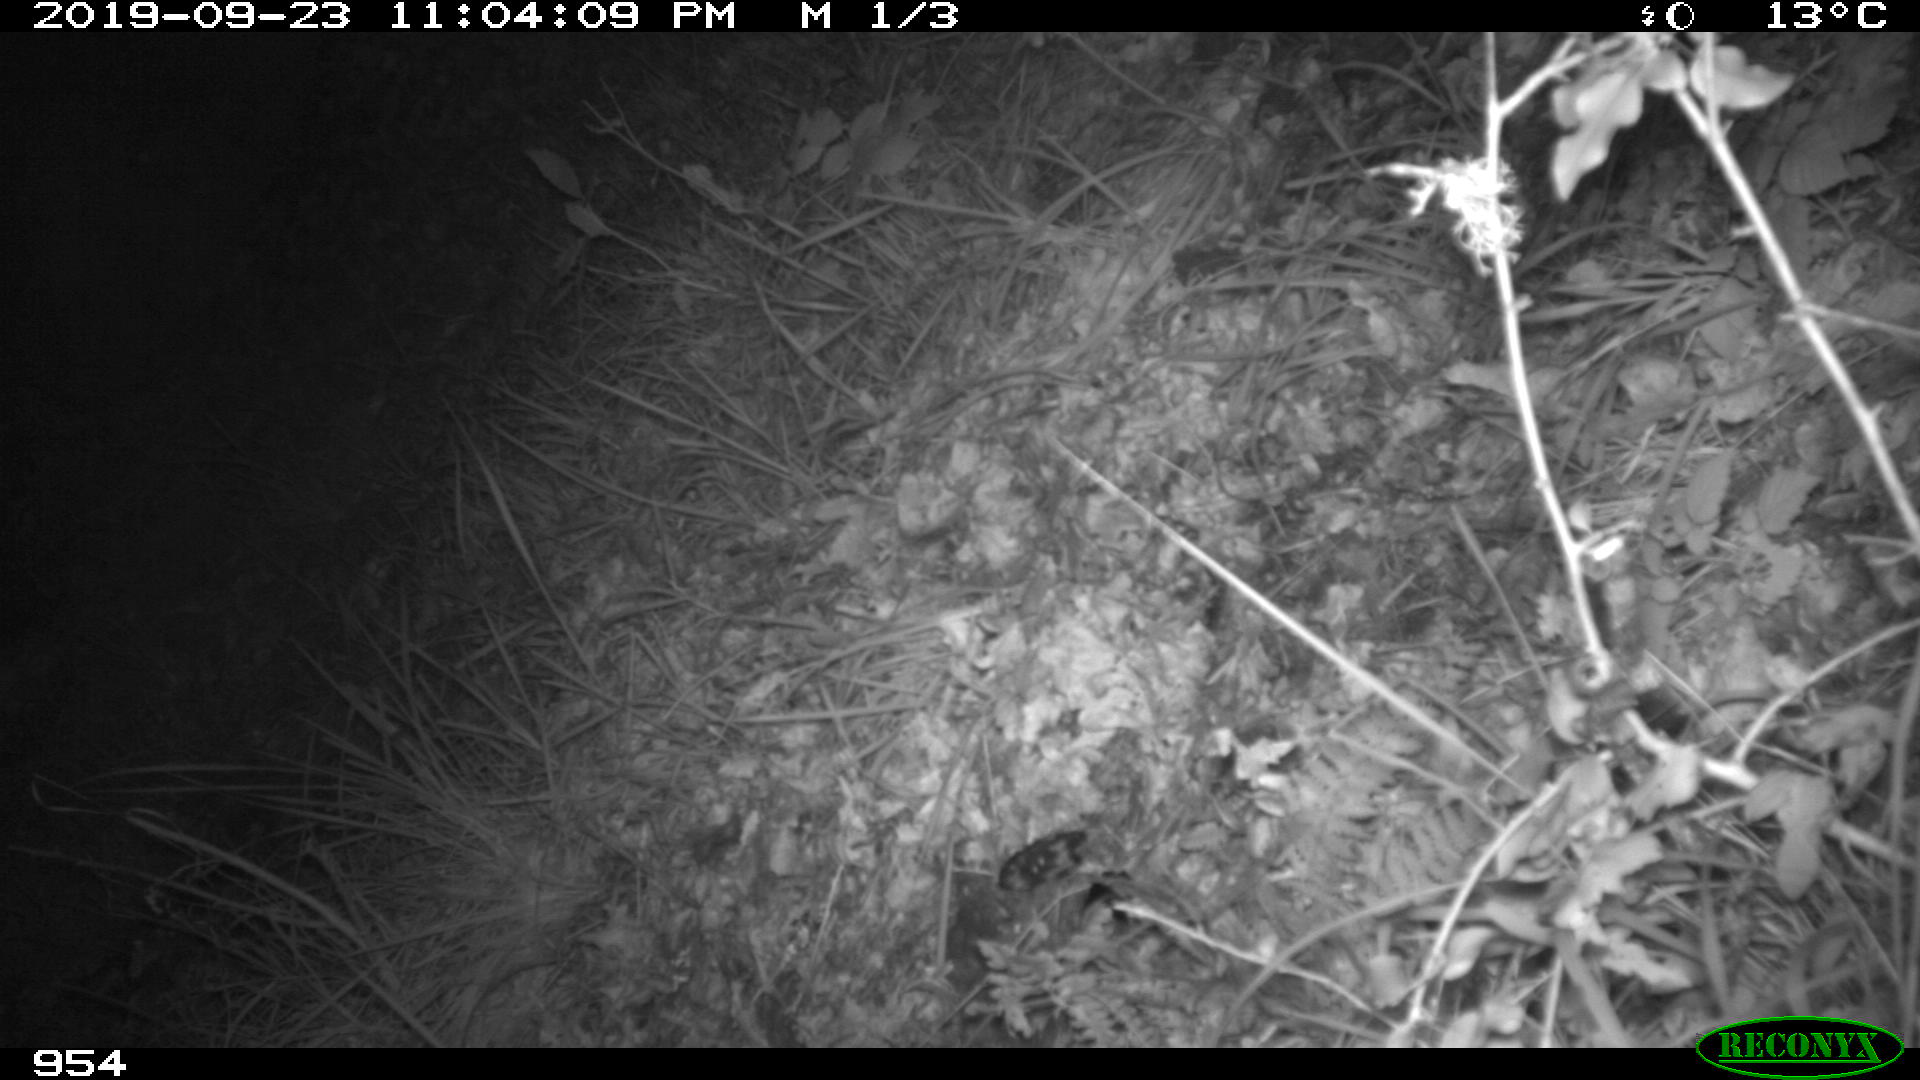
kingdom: Animalia
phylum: Chordata
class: Mammalia
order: Artiodactyla
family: Suidae
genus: Sus
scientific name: Sus scrofa
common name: Wild boar
